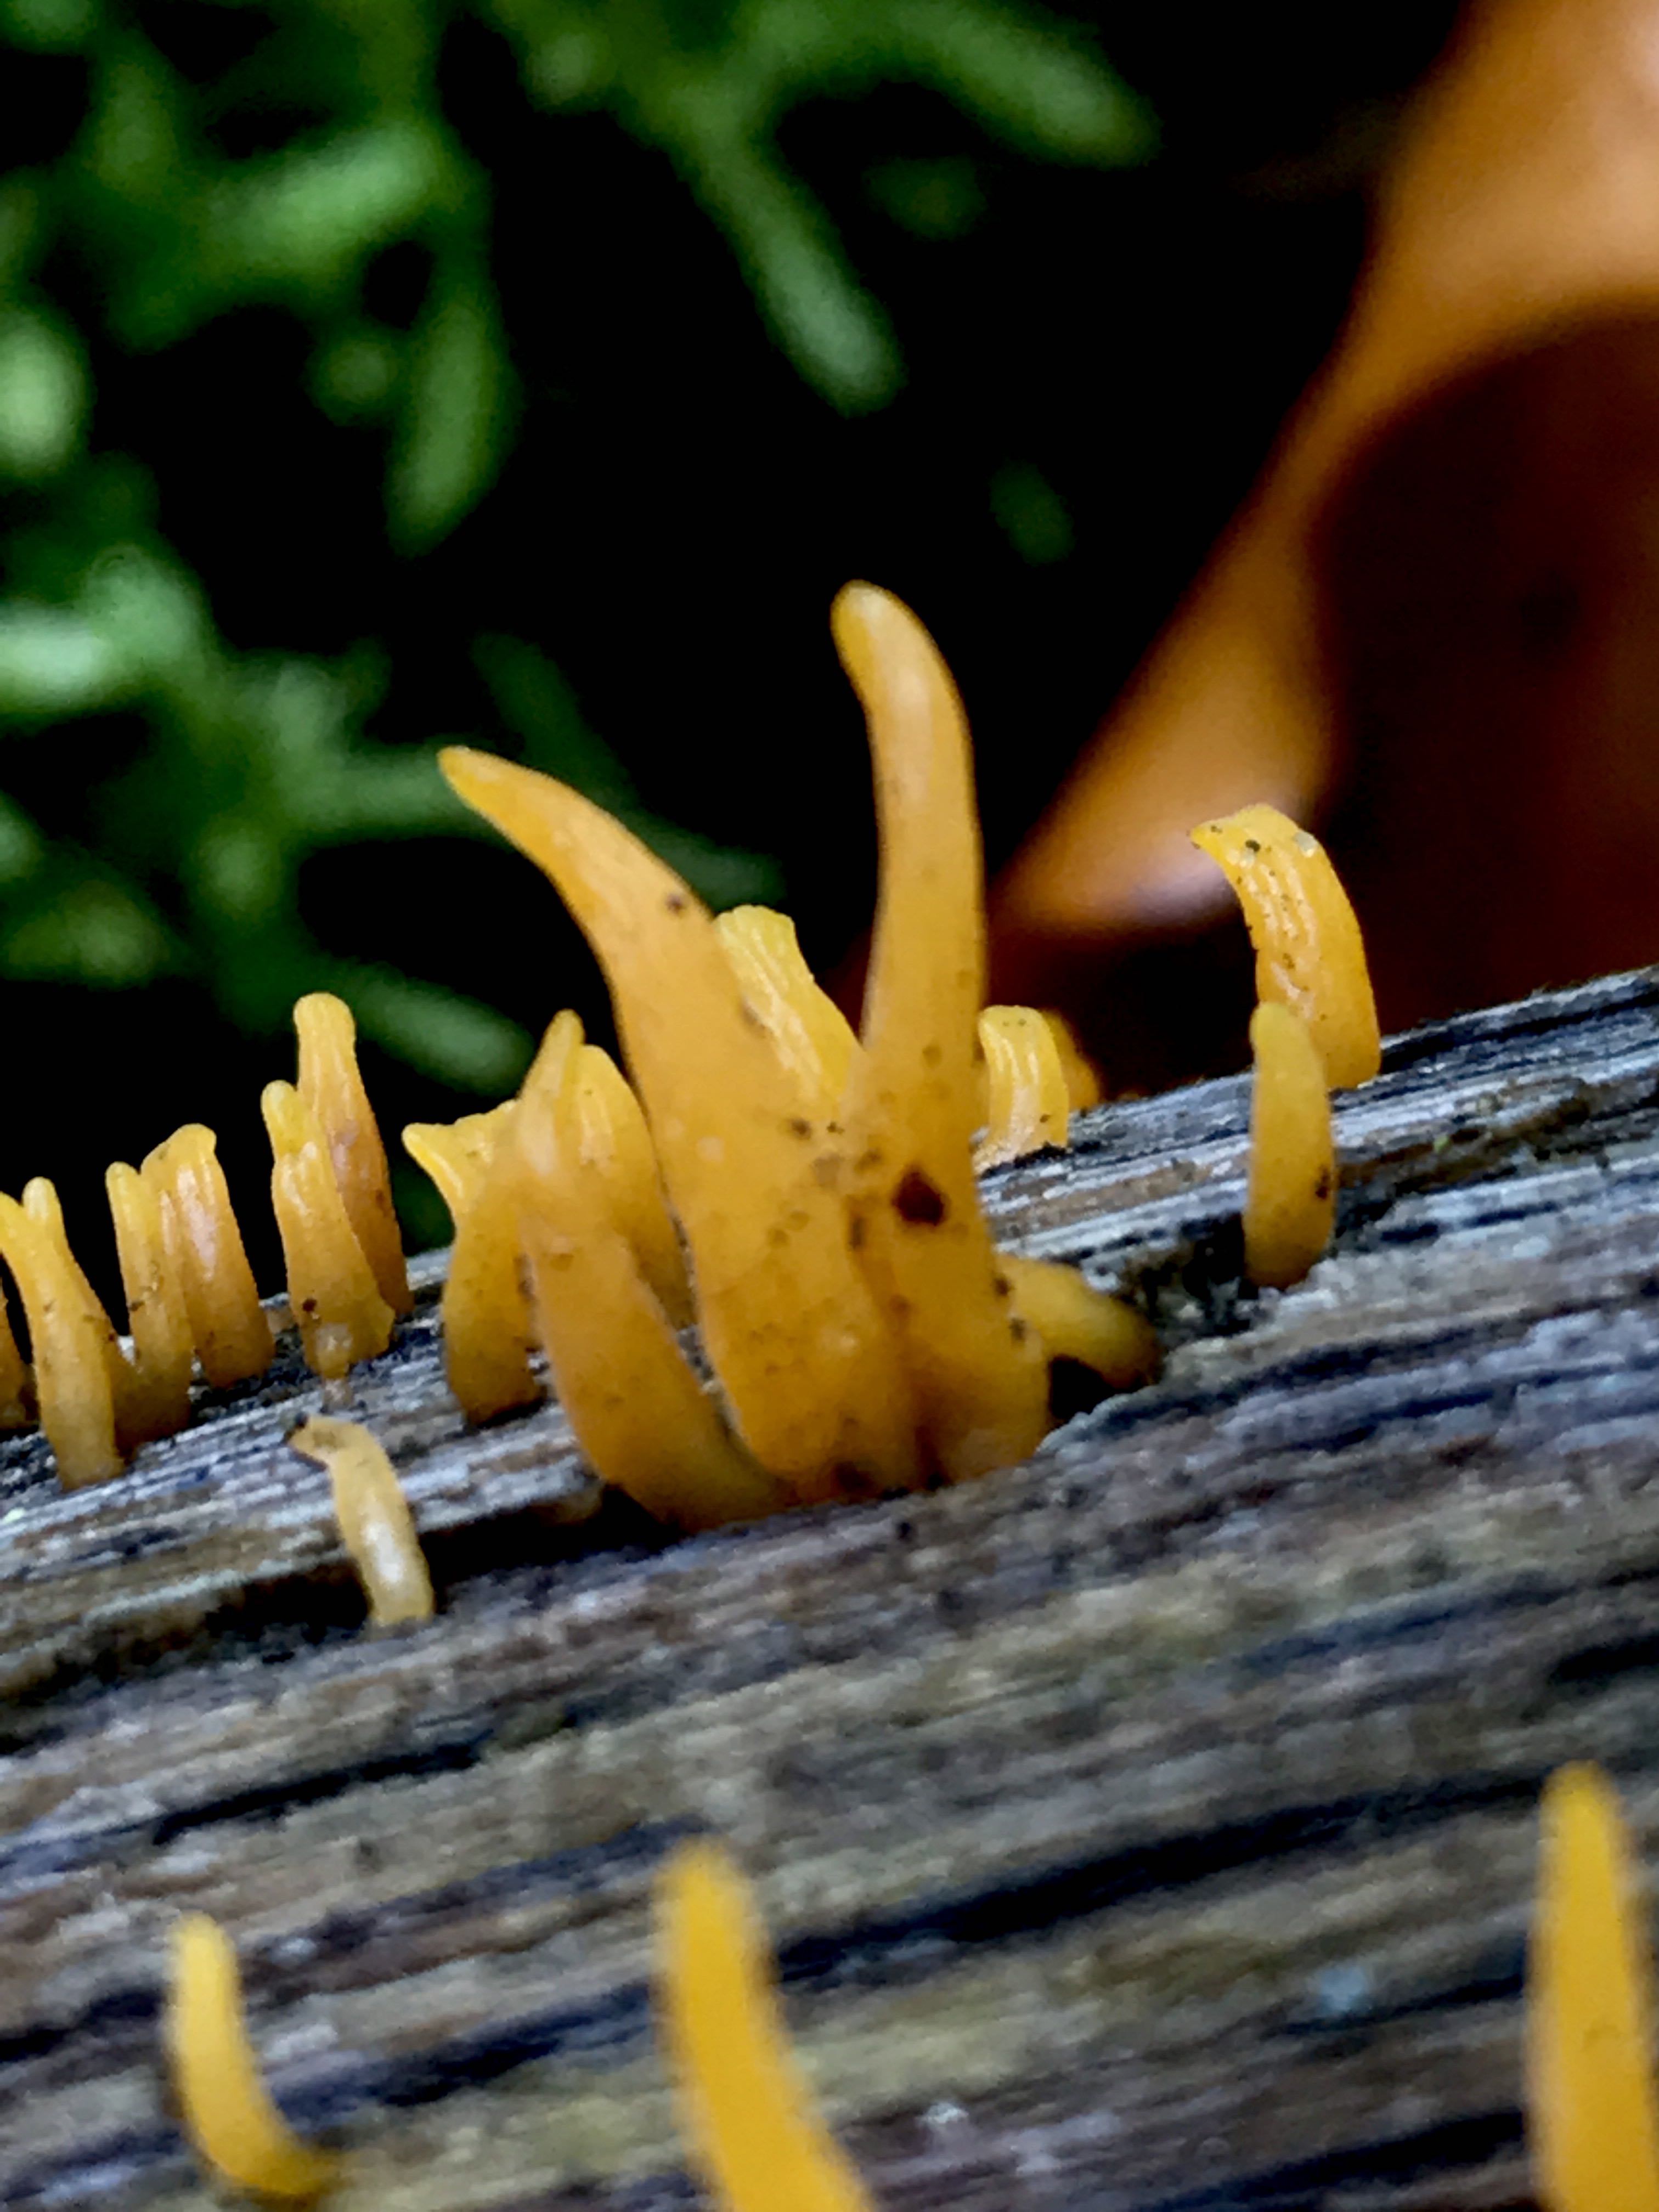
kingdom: Fungi
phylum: Basidiomycota
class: Dacrymycetes
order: Dacrymycetales
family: Dacrymycetaceae
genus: Calocera
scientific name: Calocera cornea
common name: liden guldgaffel
